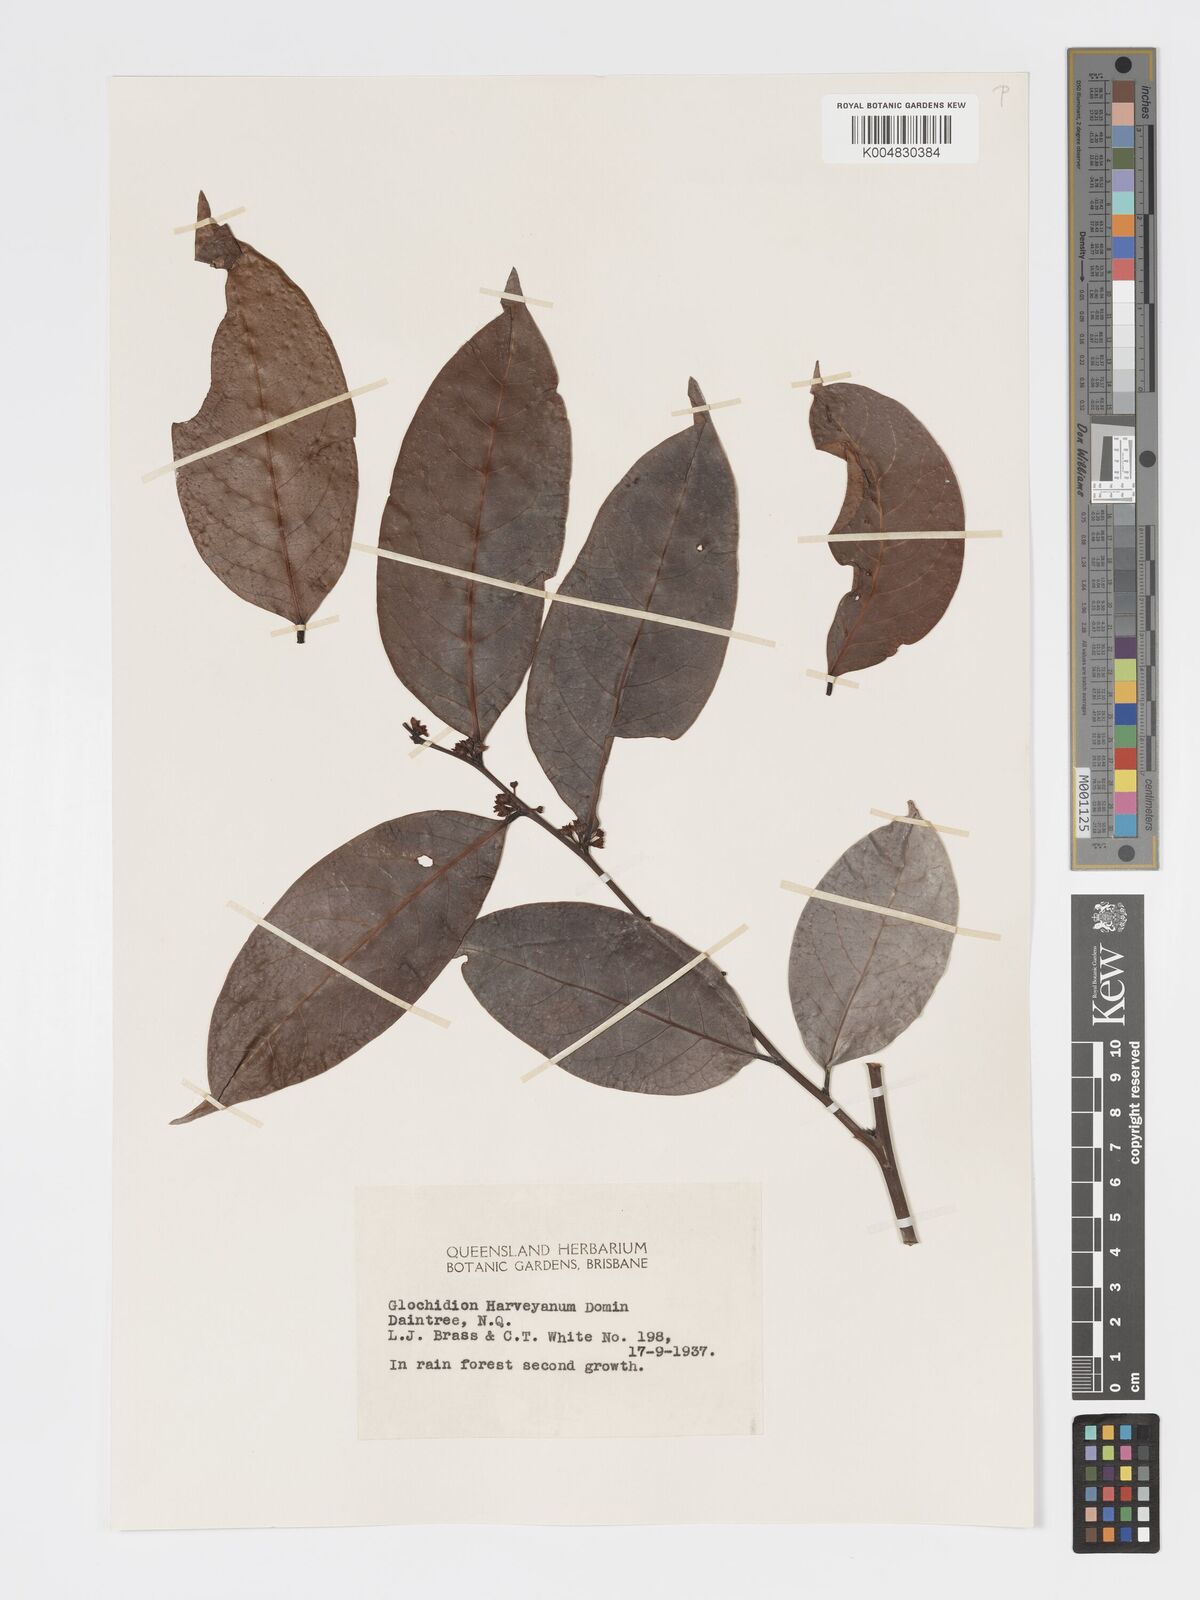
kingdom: Plantae
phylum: Tracheophyta
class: Magnoliopsida
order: Malpighiales
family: Phyllanthaceae
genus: Glochidion
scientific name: Glochidion harveyanum
